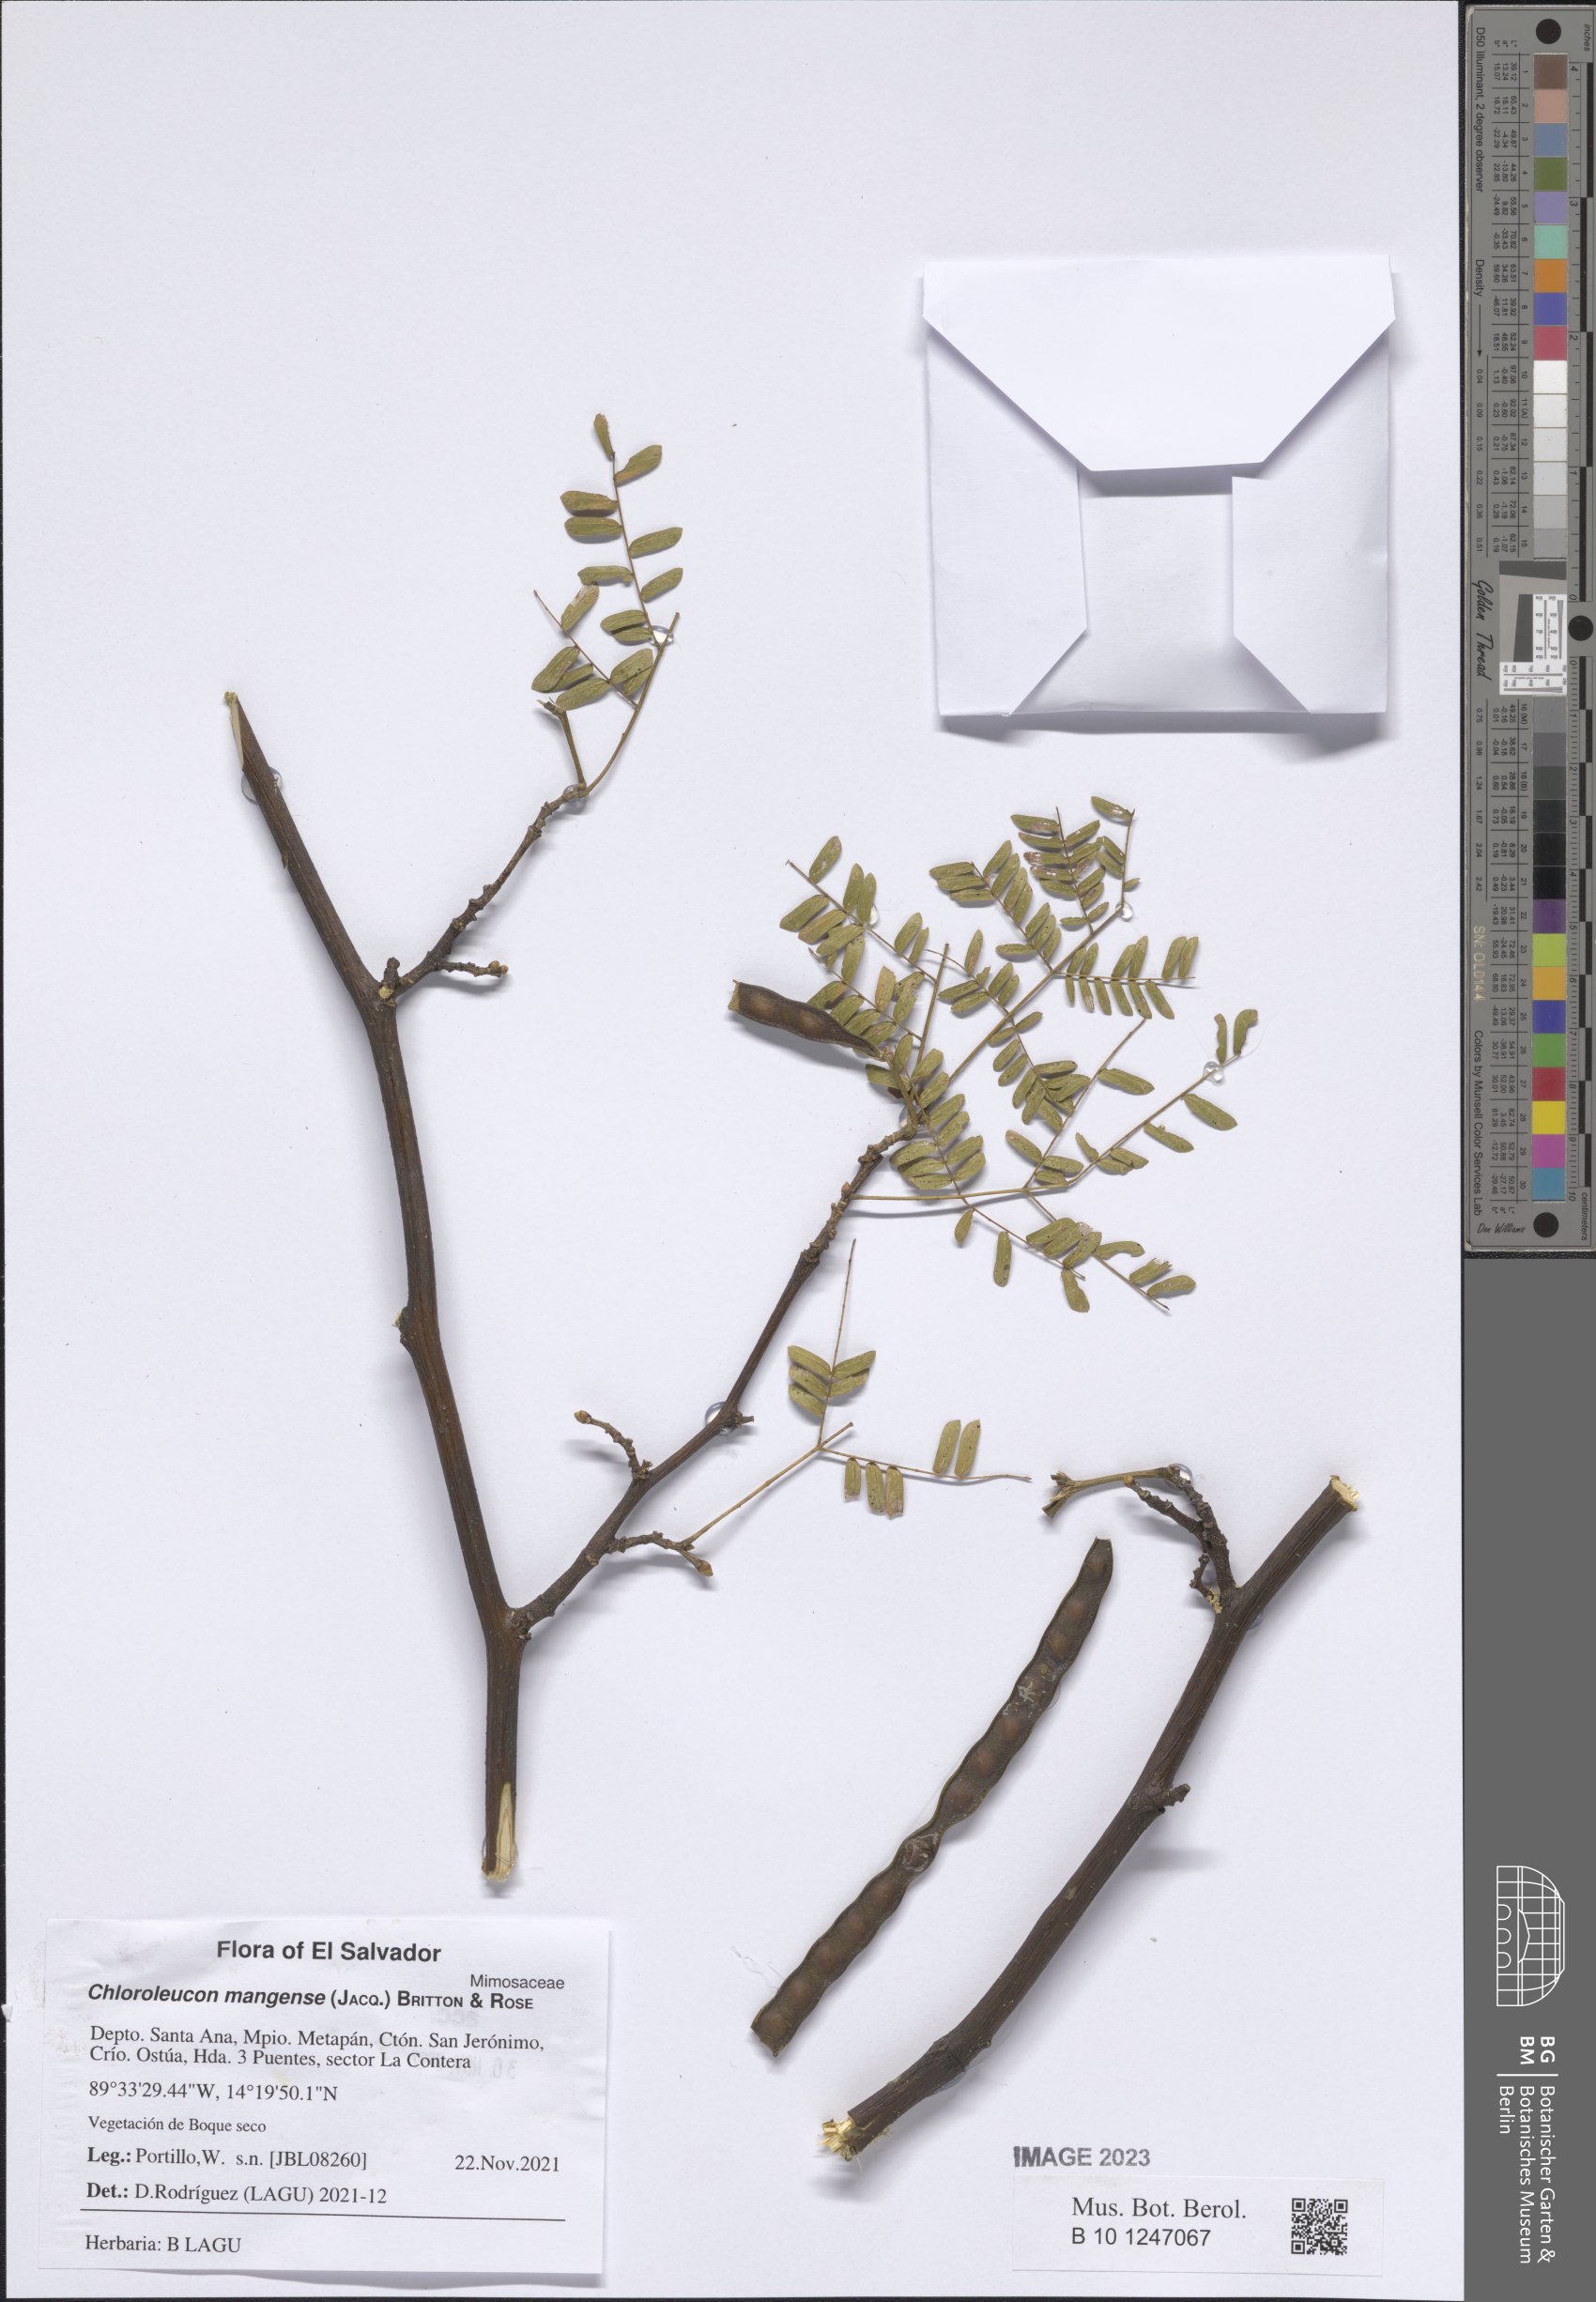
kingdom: Plantae
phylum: Tracheophyta
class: Magnoliopsida
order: Fabales
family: Fabaceae
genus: Chloroleucon
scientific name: Chloroleucon mangense
